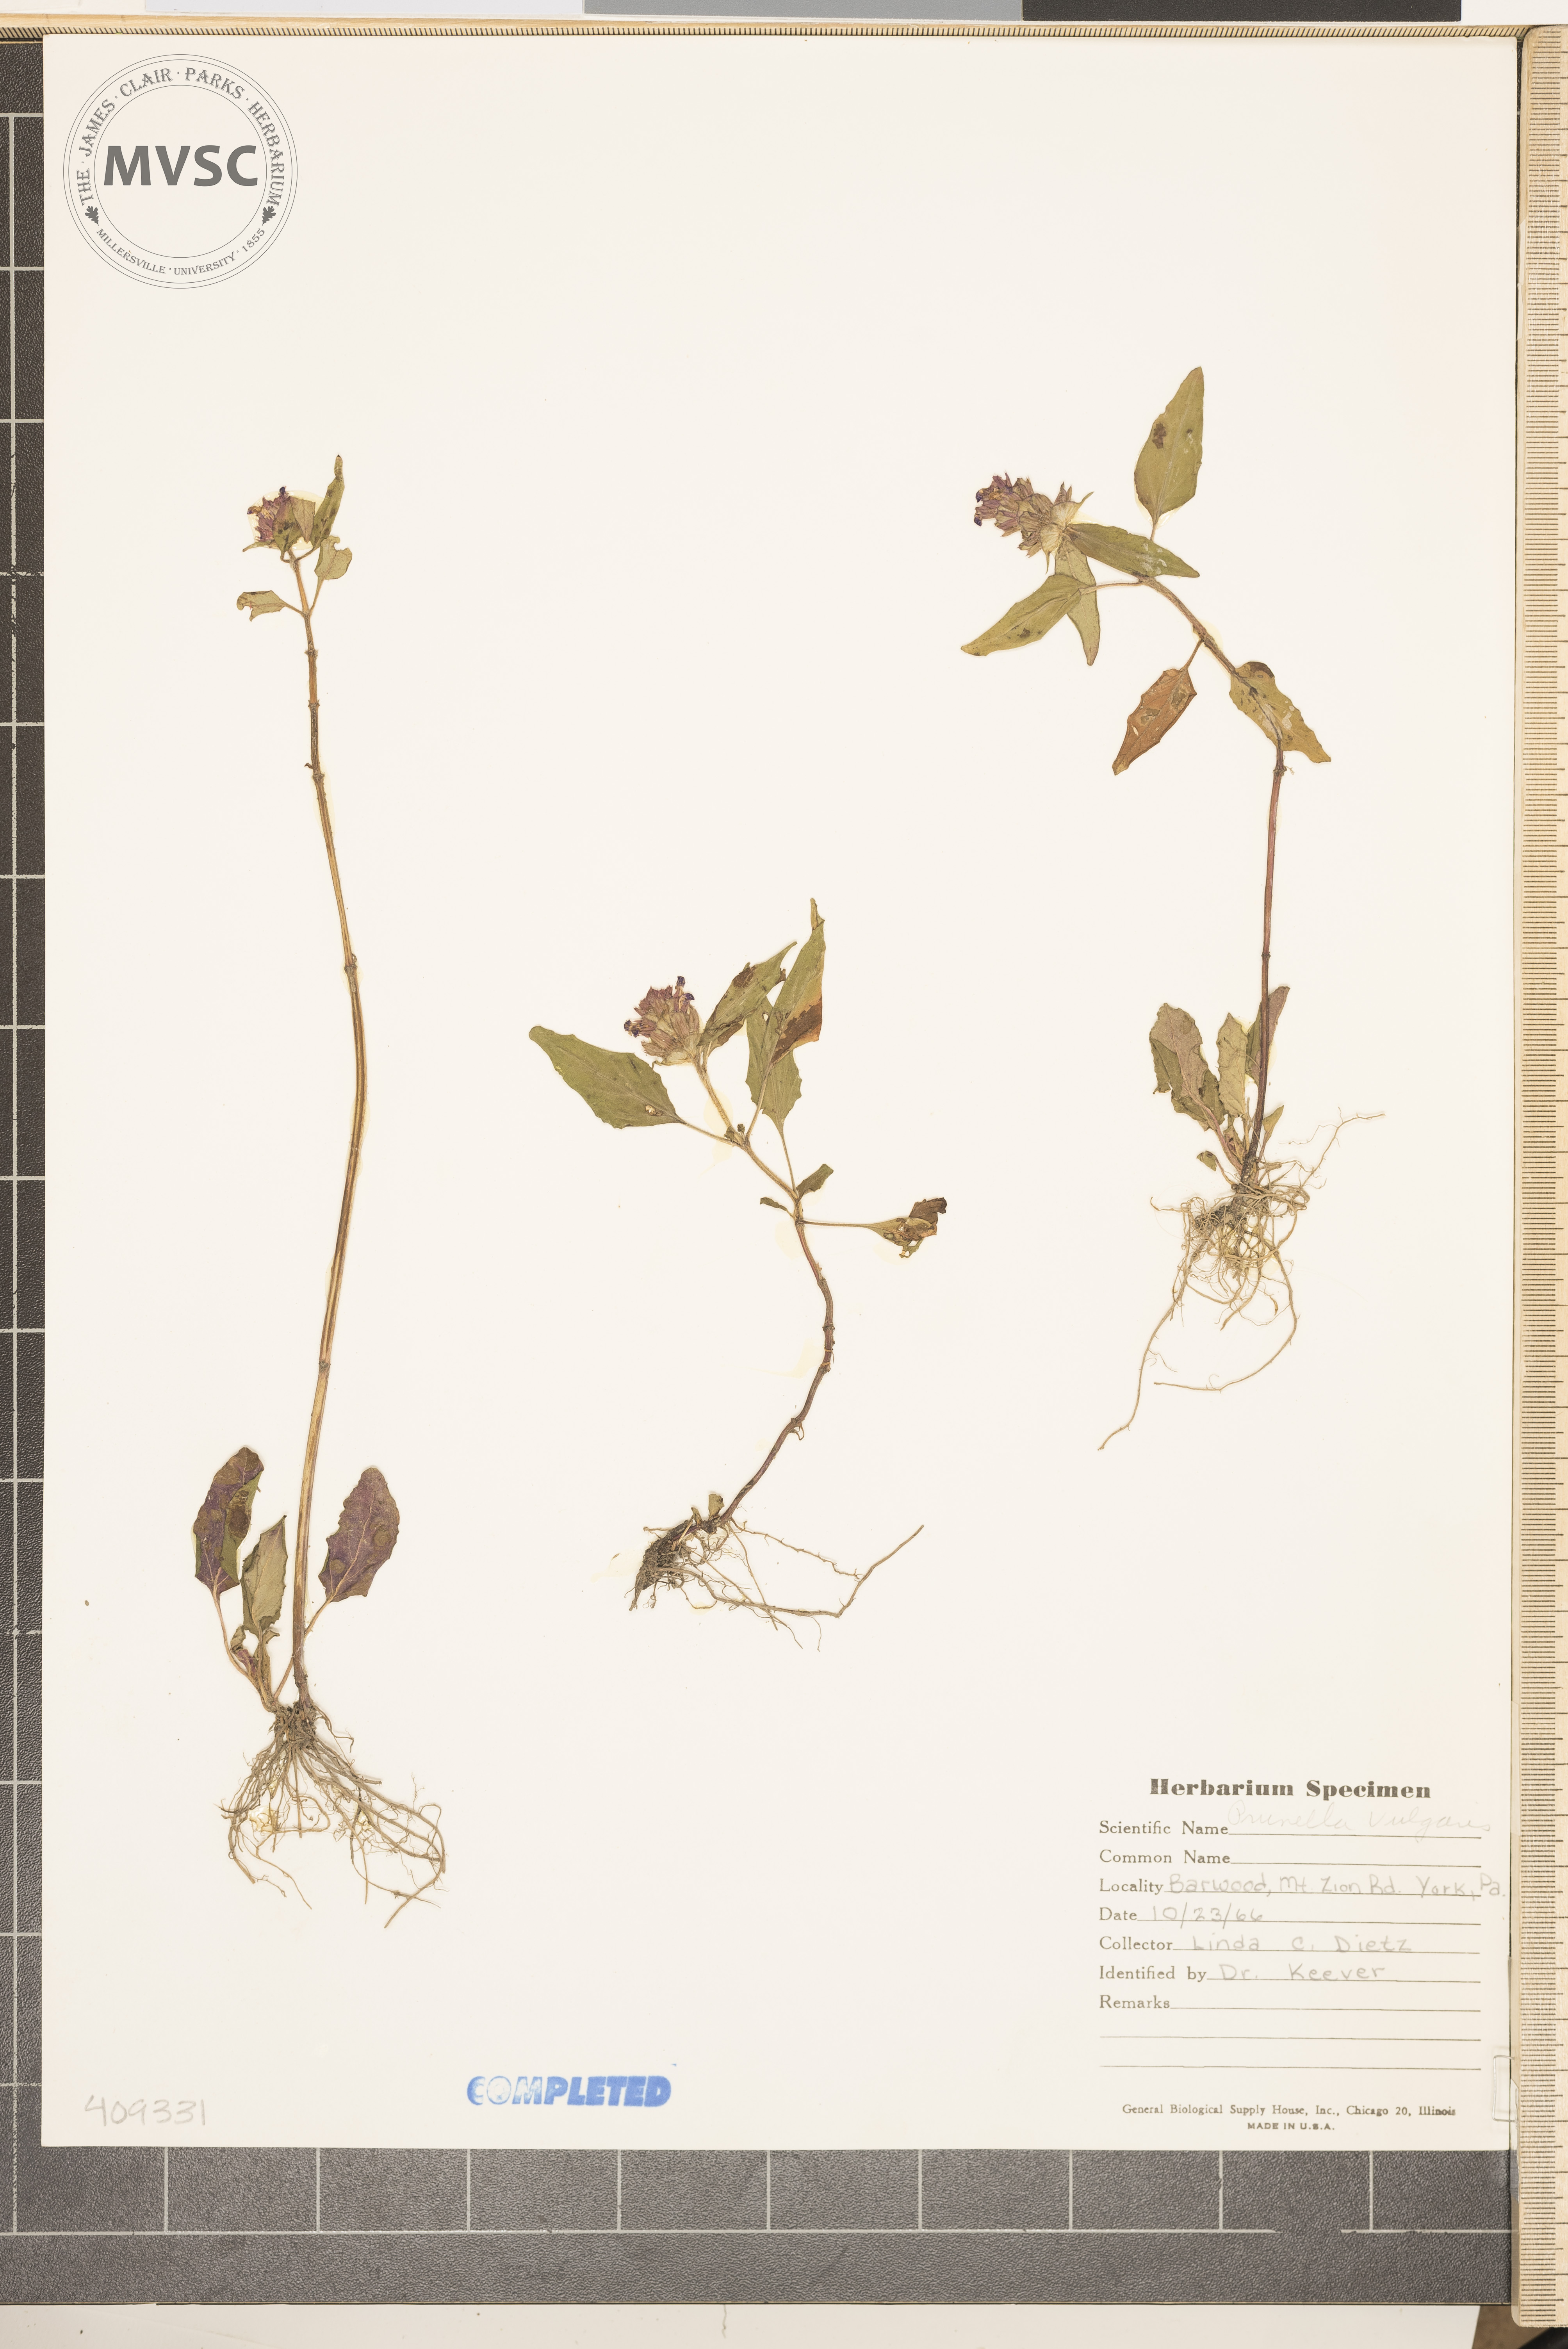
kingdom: Plantae
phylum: Tracheophyta
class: Magnoliopsida
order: Lamiales
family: Lamiaceae
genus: Prunella
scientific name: Prunella vulgaris
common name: Heal-all
